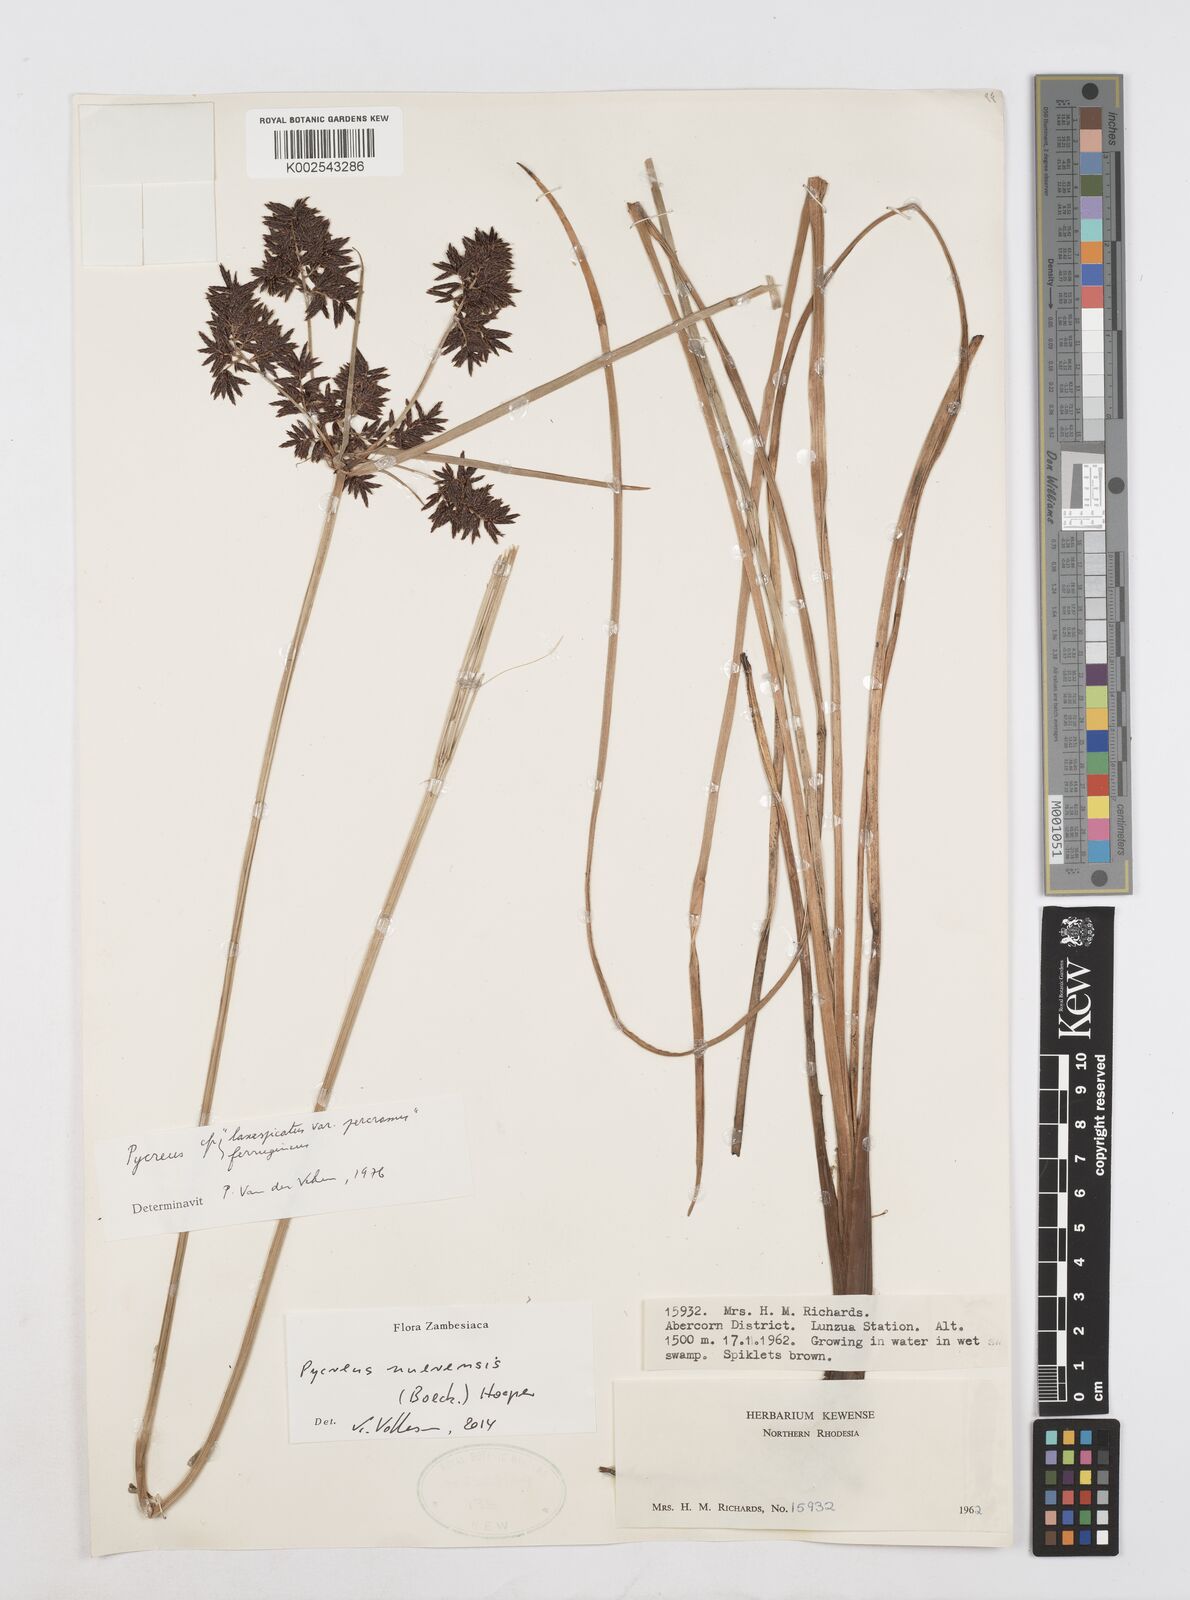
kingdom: Plantae
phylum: Tracheophyta
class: Liliopsida
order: Poales
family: Cyperaceae
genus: Cyperus
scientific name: Cyperus nuerensis
